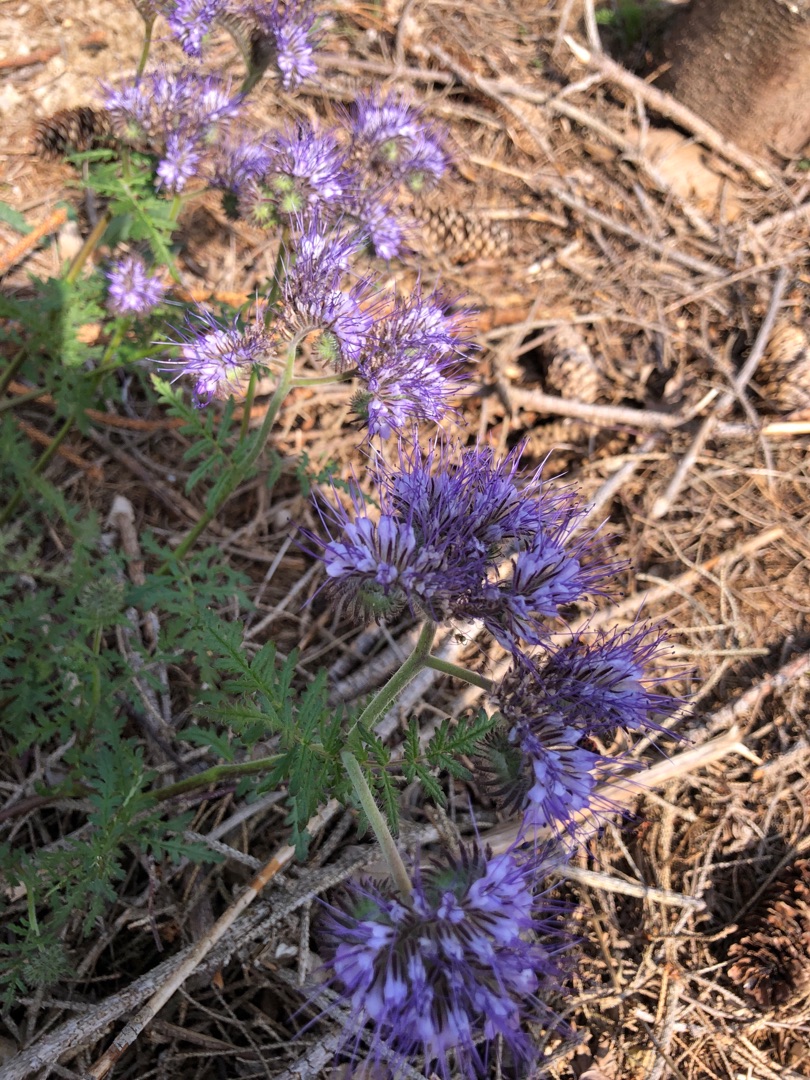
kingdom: Plantae
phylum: Tracheophyta
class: Magnoliopsida
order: Boraginales
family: Hydrophyllaceae
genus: Phacelia
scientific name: Phacelia tanacetifolia
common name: Honningurt
